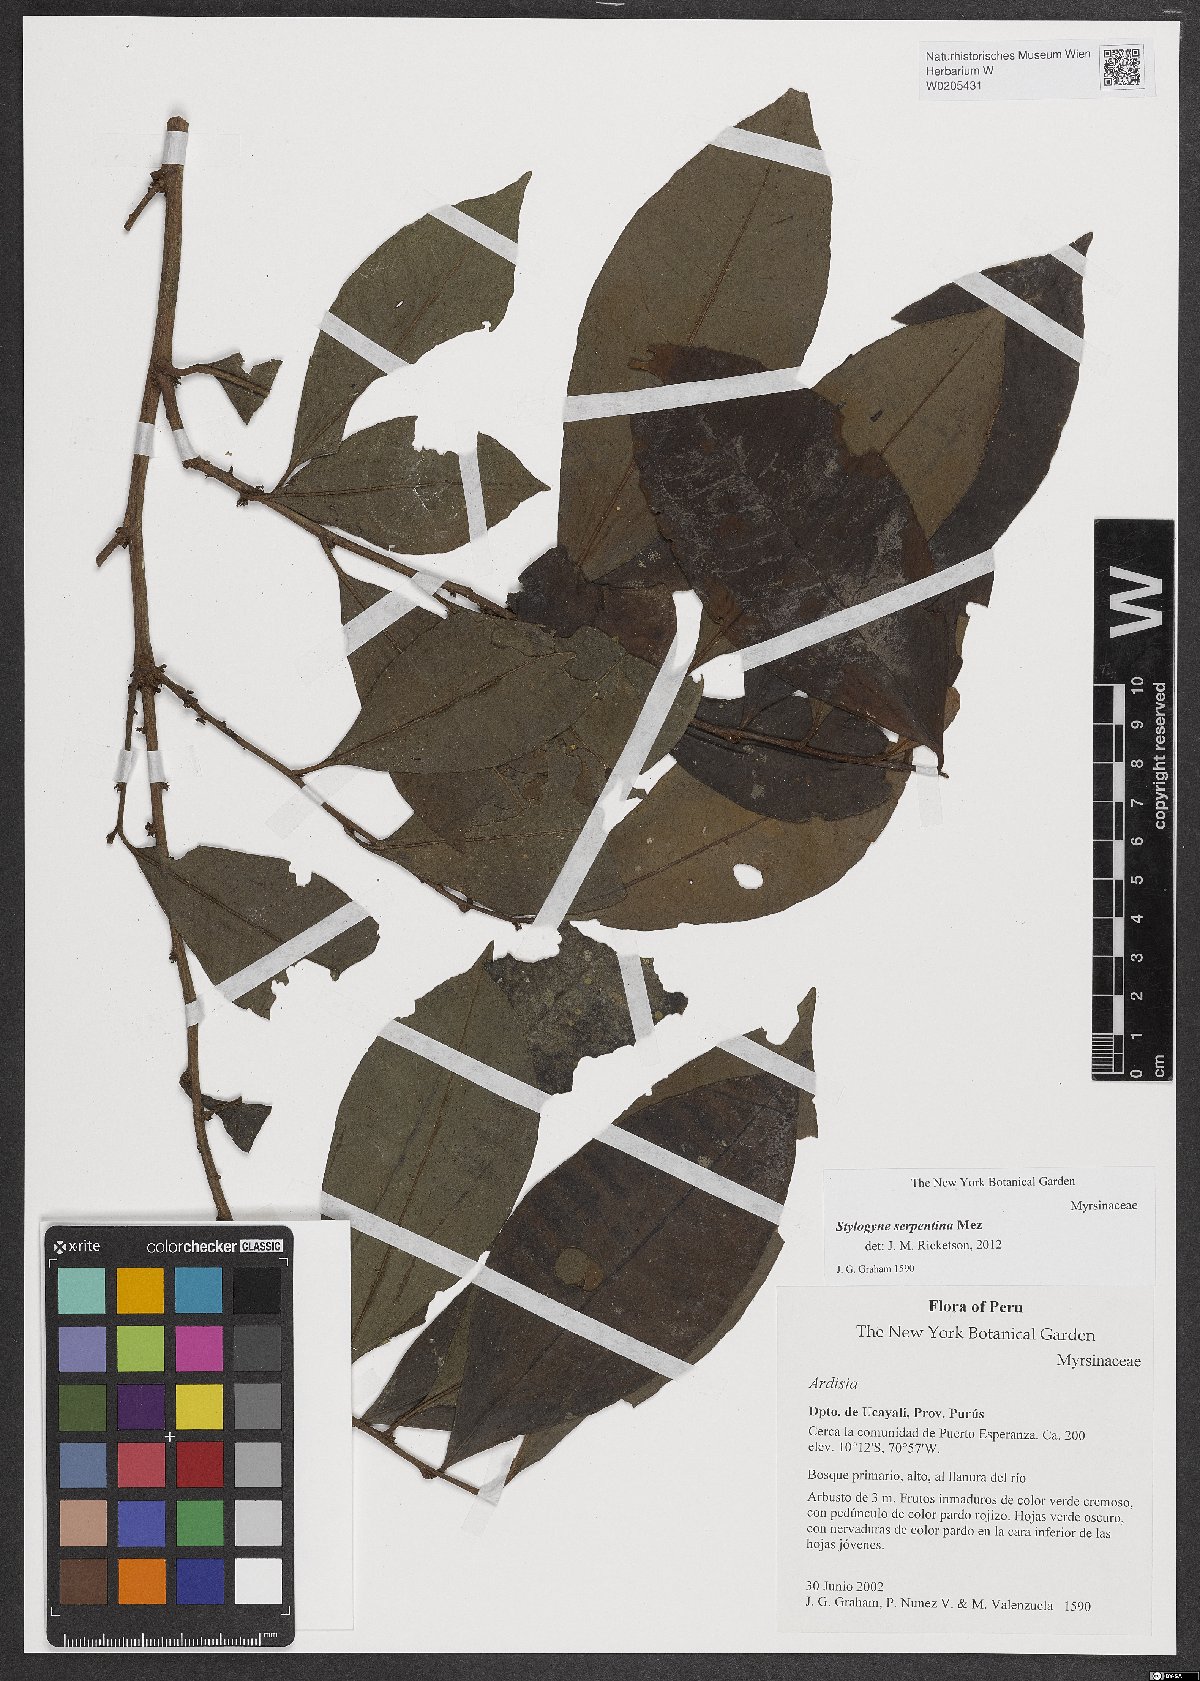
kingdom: Plantae
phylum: Tracheophyta
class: Magnoliopsida
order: Ericales
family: Primulaceae
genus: Stylogyne
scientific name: Stylogyne serpentina
